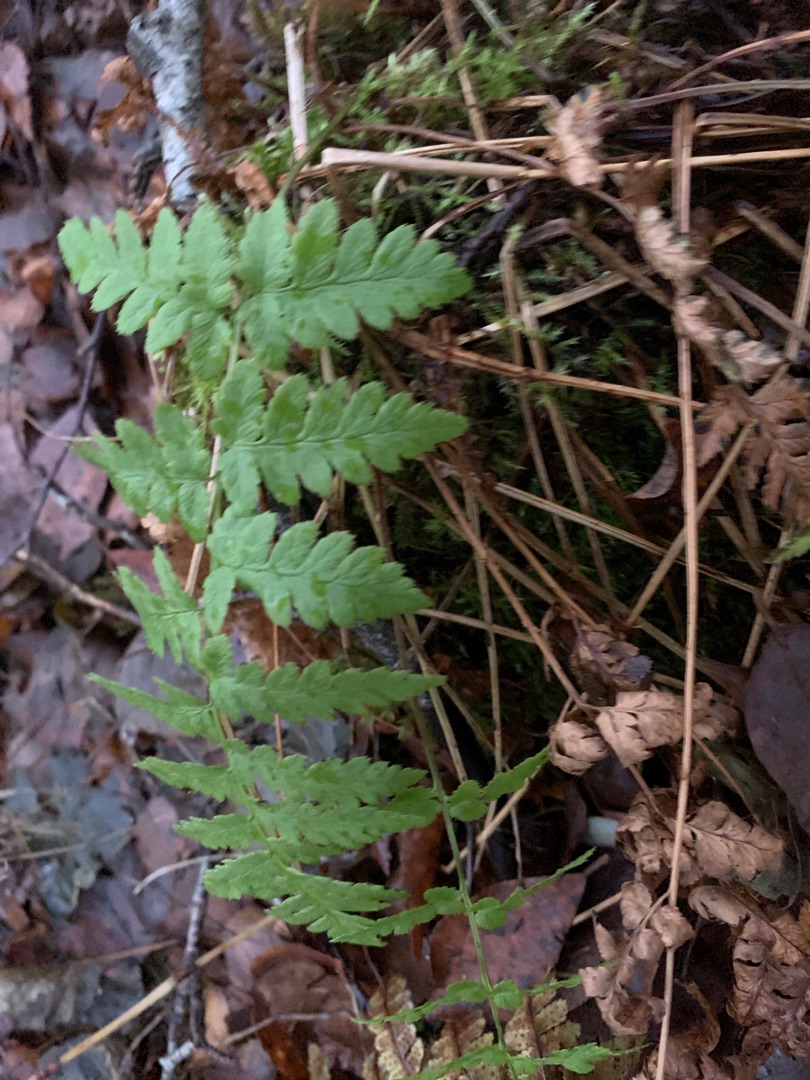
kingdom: Plantae
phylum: Tracheophyta
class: Polypodiopsida
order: Polypodiales
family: Dryopteridaceae
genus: Dryopteris
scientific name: Dryopteris cristata
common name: Butfinnet mangeløv
